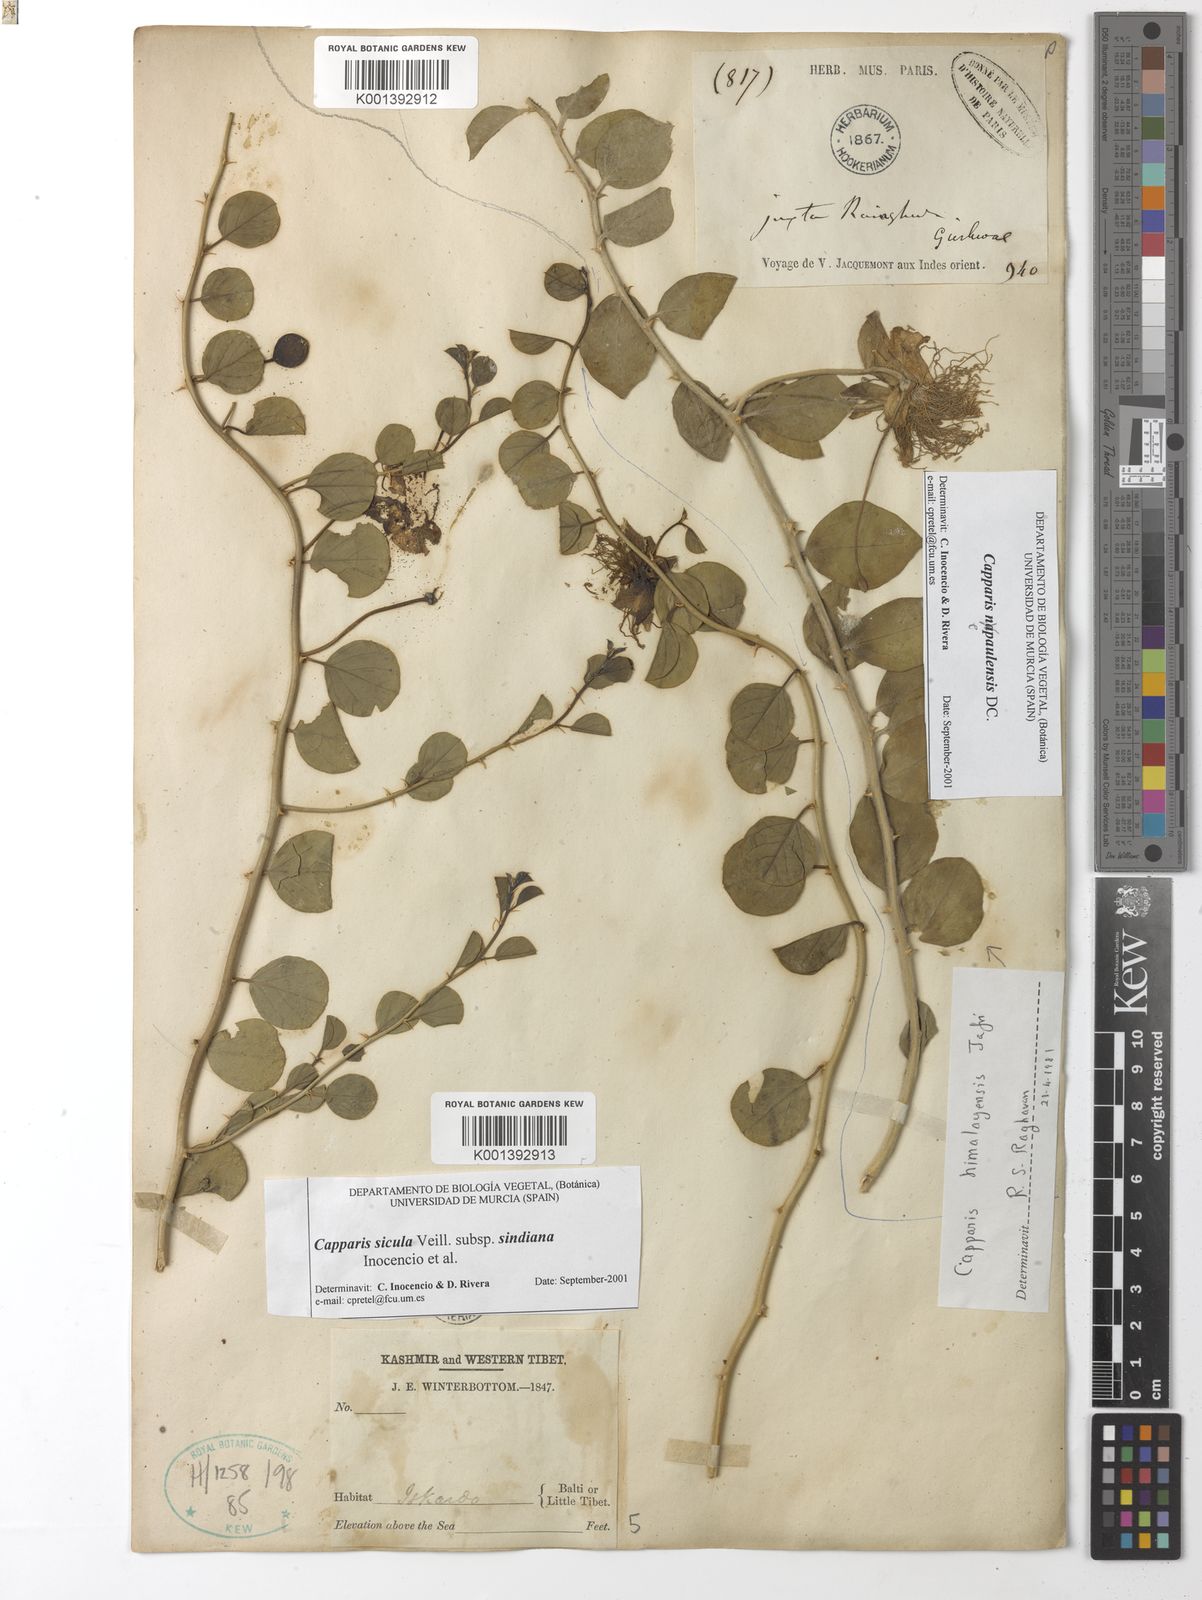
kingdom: Plantae
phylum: Tracheophyta
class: Magnoliopsida
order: Brassicales
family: Capparaceae
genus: Capparis
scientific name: Capparis spinosa
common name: Caper
